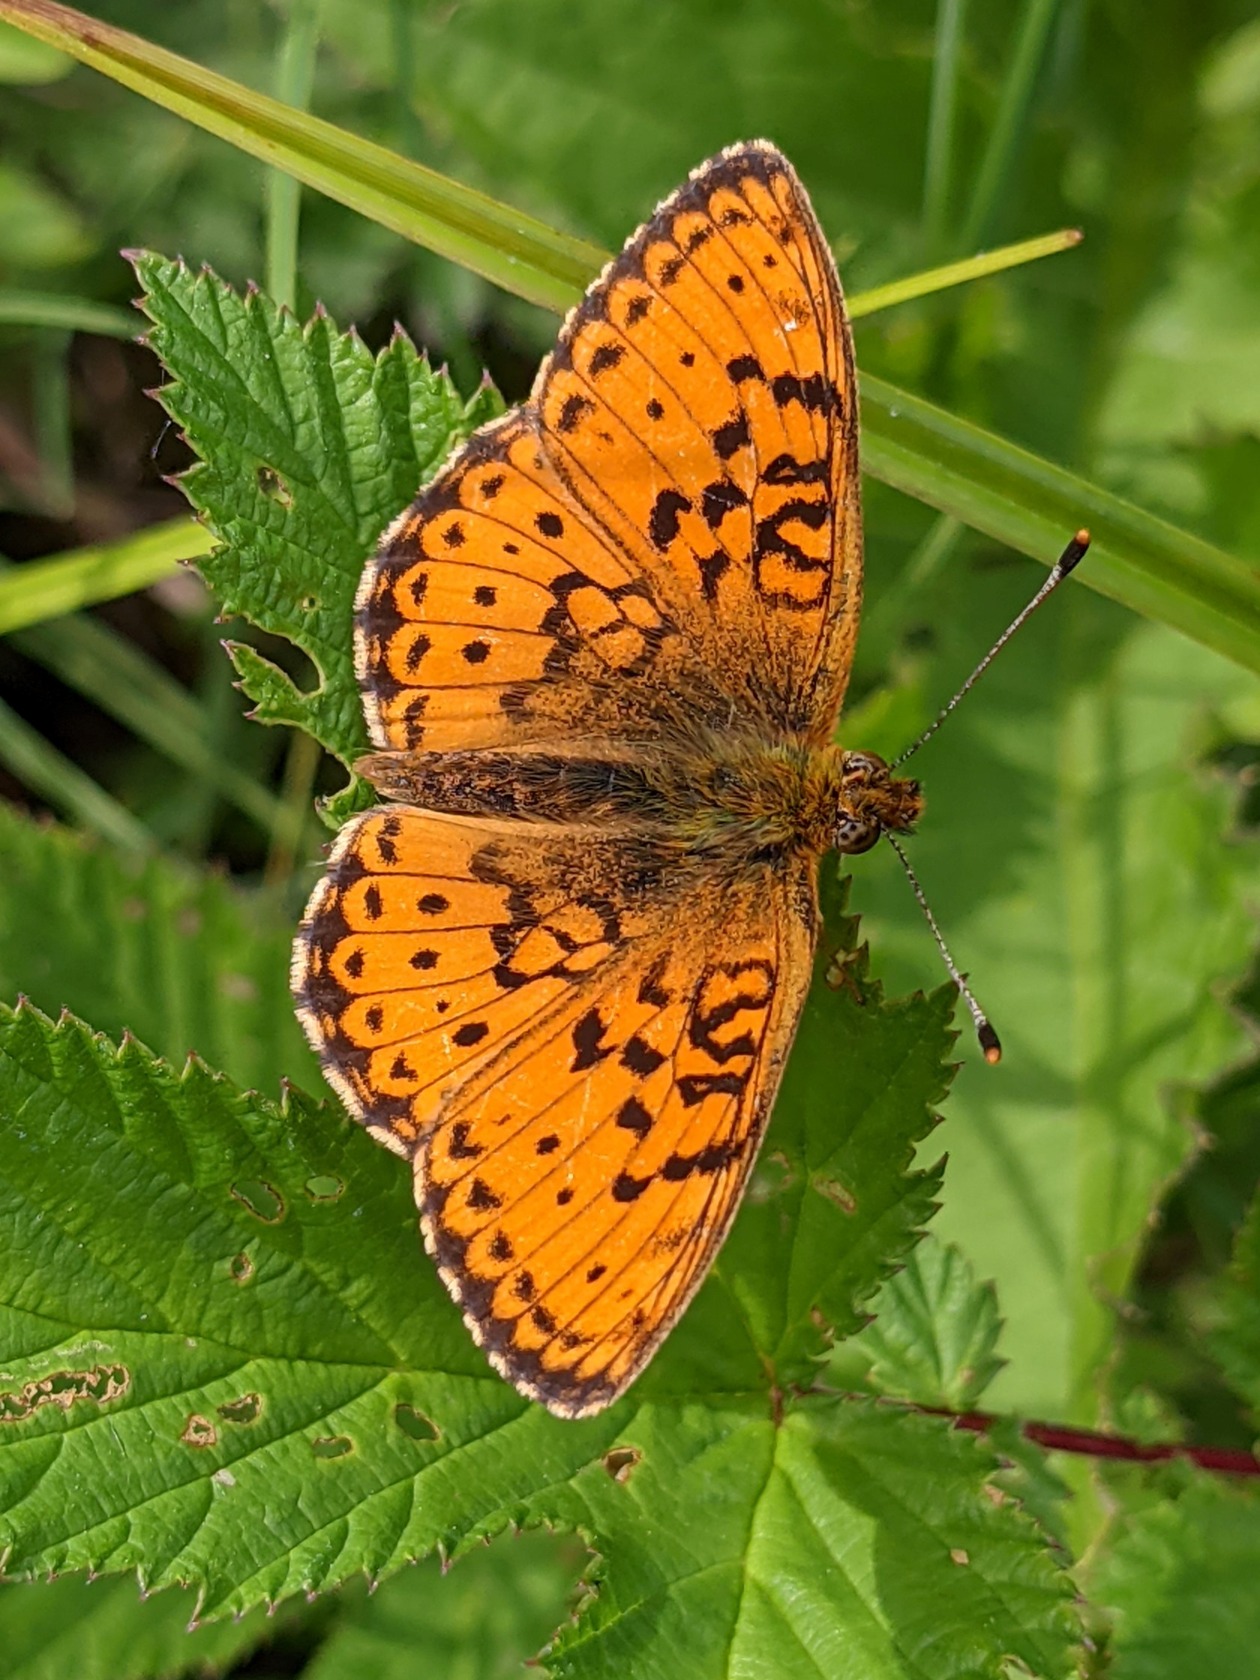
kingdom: Animalia
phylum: Arthropoda
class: Insecta
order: Lepidoptera
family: Nymphalidae
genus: Brenthis
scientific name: Brenthis ino
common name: Engperlemorsommerfugl
